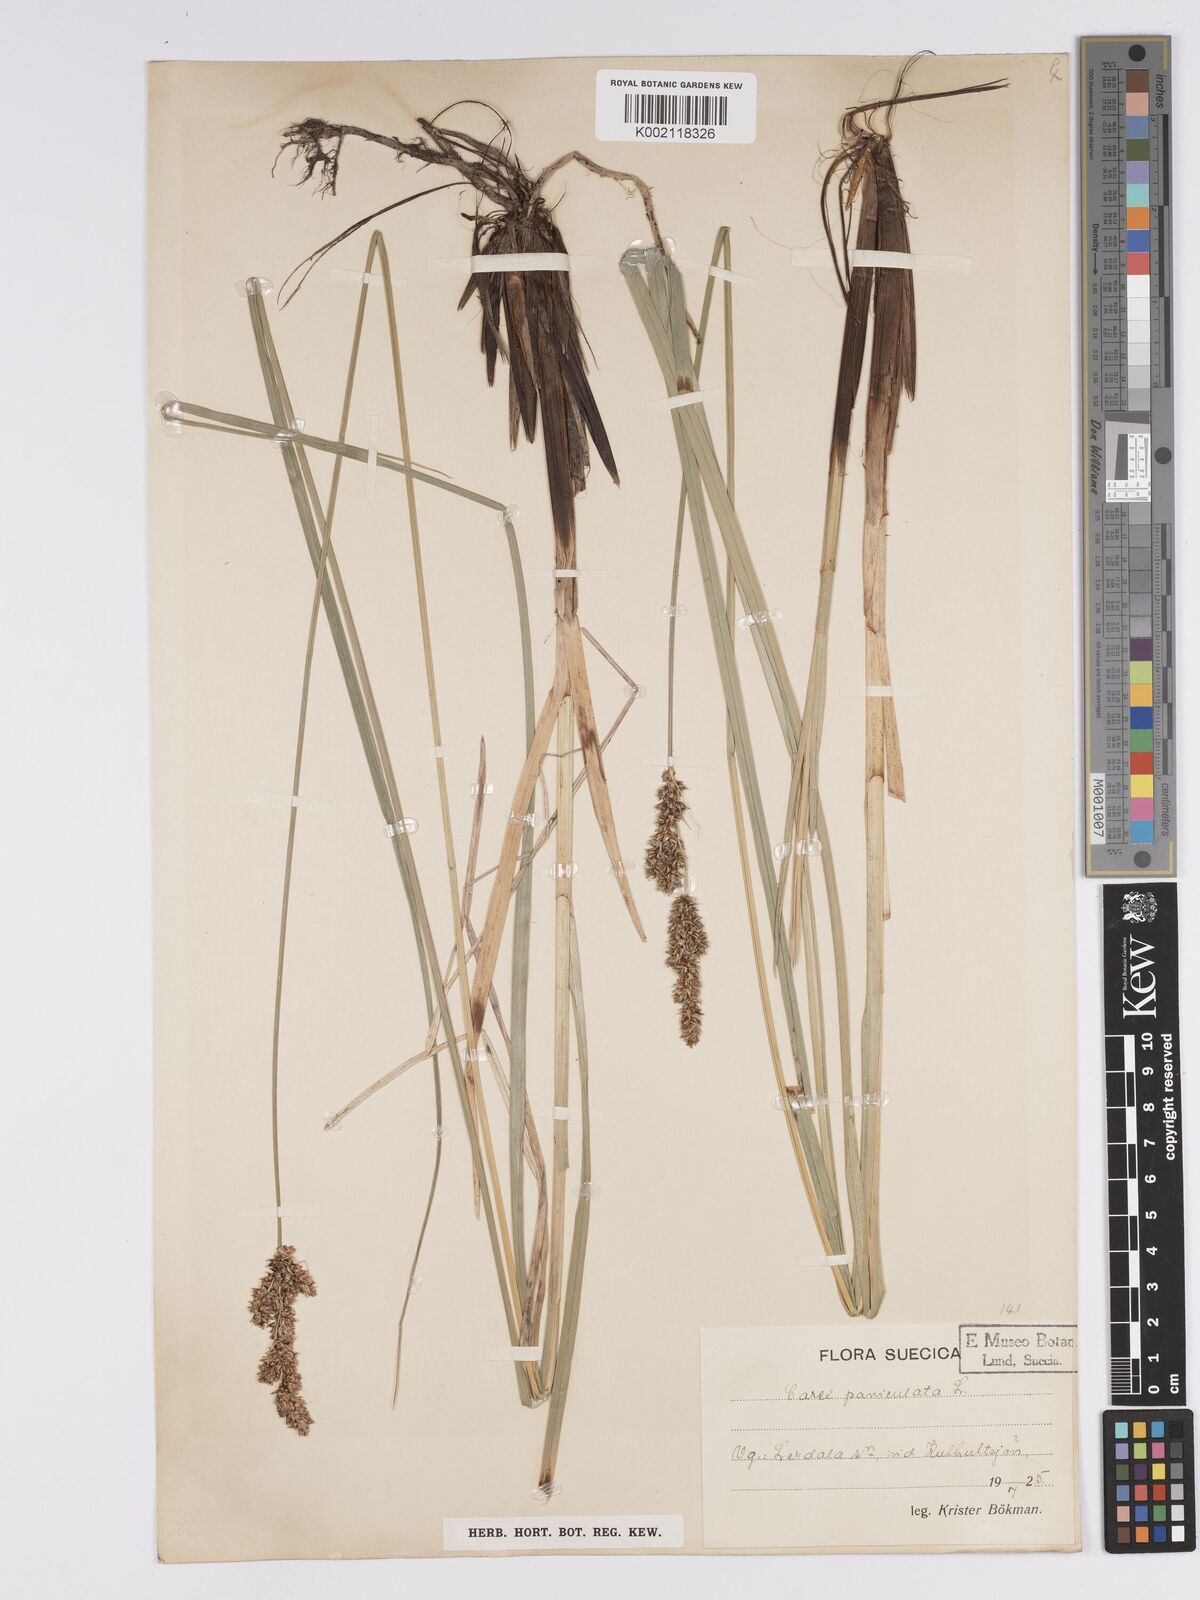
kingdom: Plantae
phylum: Tracheophyta
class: Liliopsida
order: Poales
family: Cyperaceae
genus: Carex
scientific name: Carex paniculata
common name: Greater tussock-sedge
